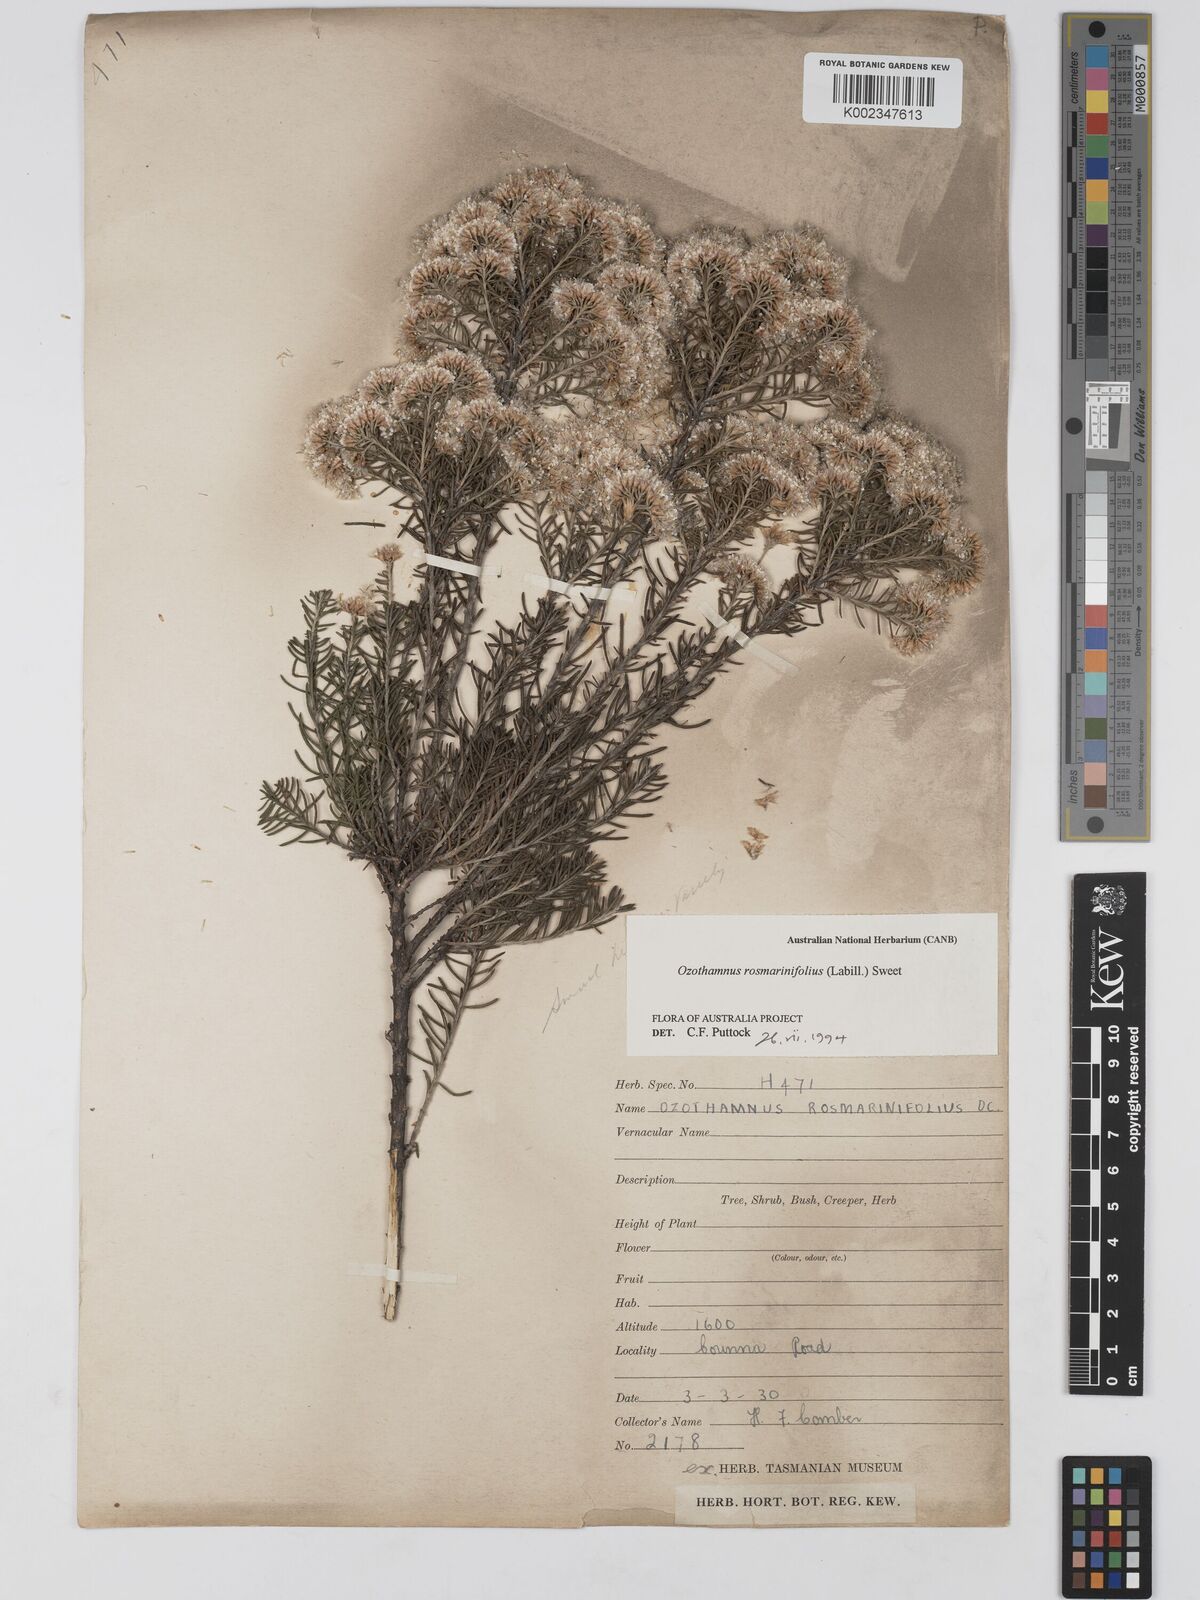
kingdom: Plantae
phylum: Tracheophyta
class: Magnoliopsida
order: Asterales
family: Asteraceae
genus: Ozothamnus
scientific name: Ozothamnus rosmarinifolius
